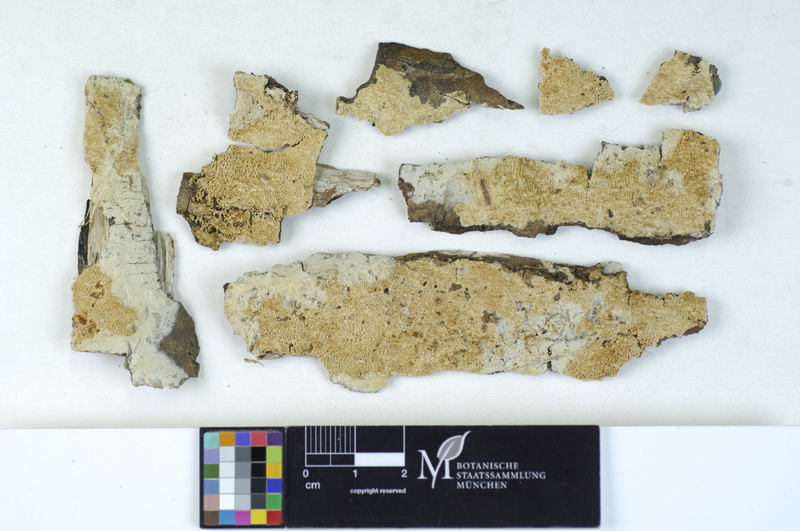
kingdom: Plantae
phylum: Tracheophyta
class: Magnoliopsida
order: Malpighiales
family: Salicaceae
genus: Salix
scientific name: Salix alba
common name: White willow
